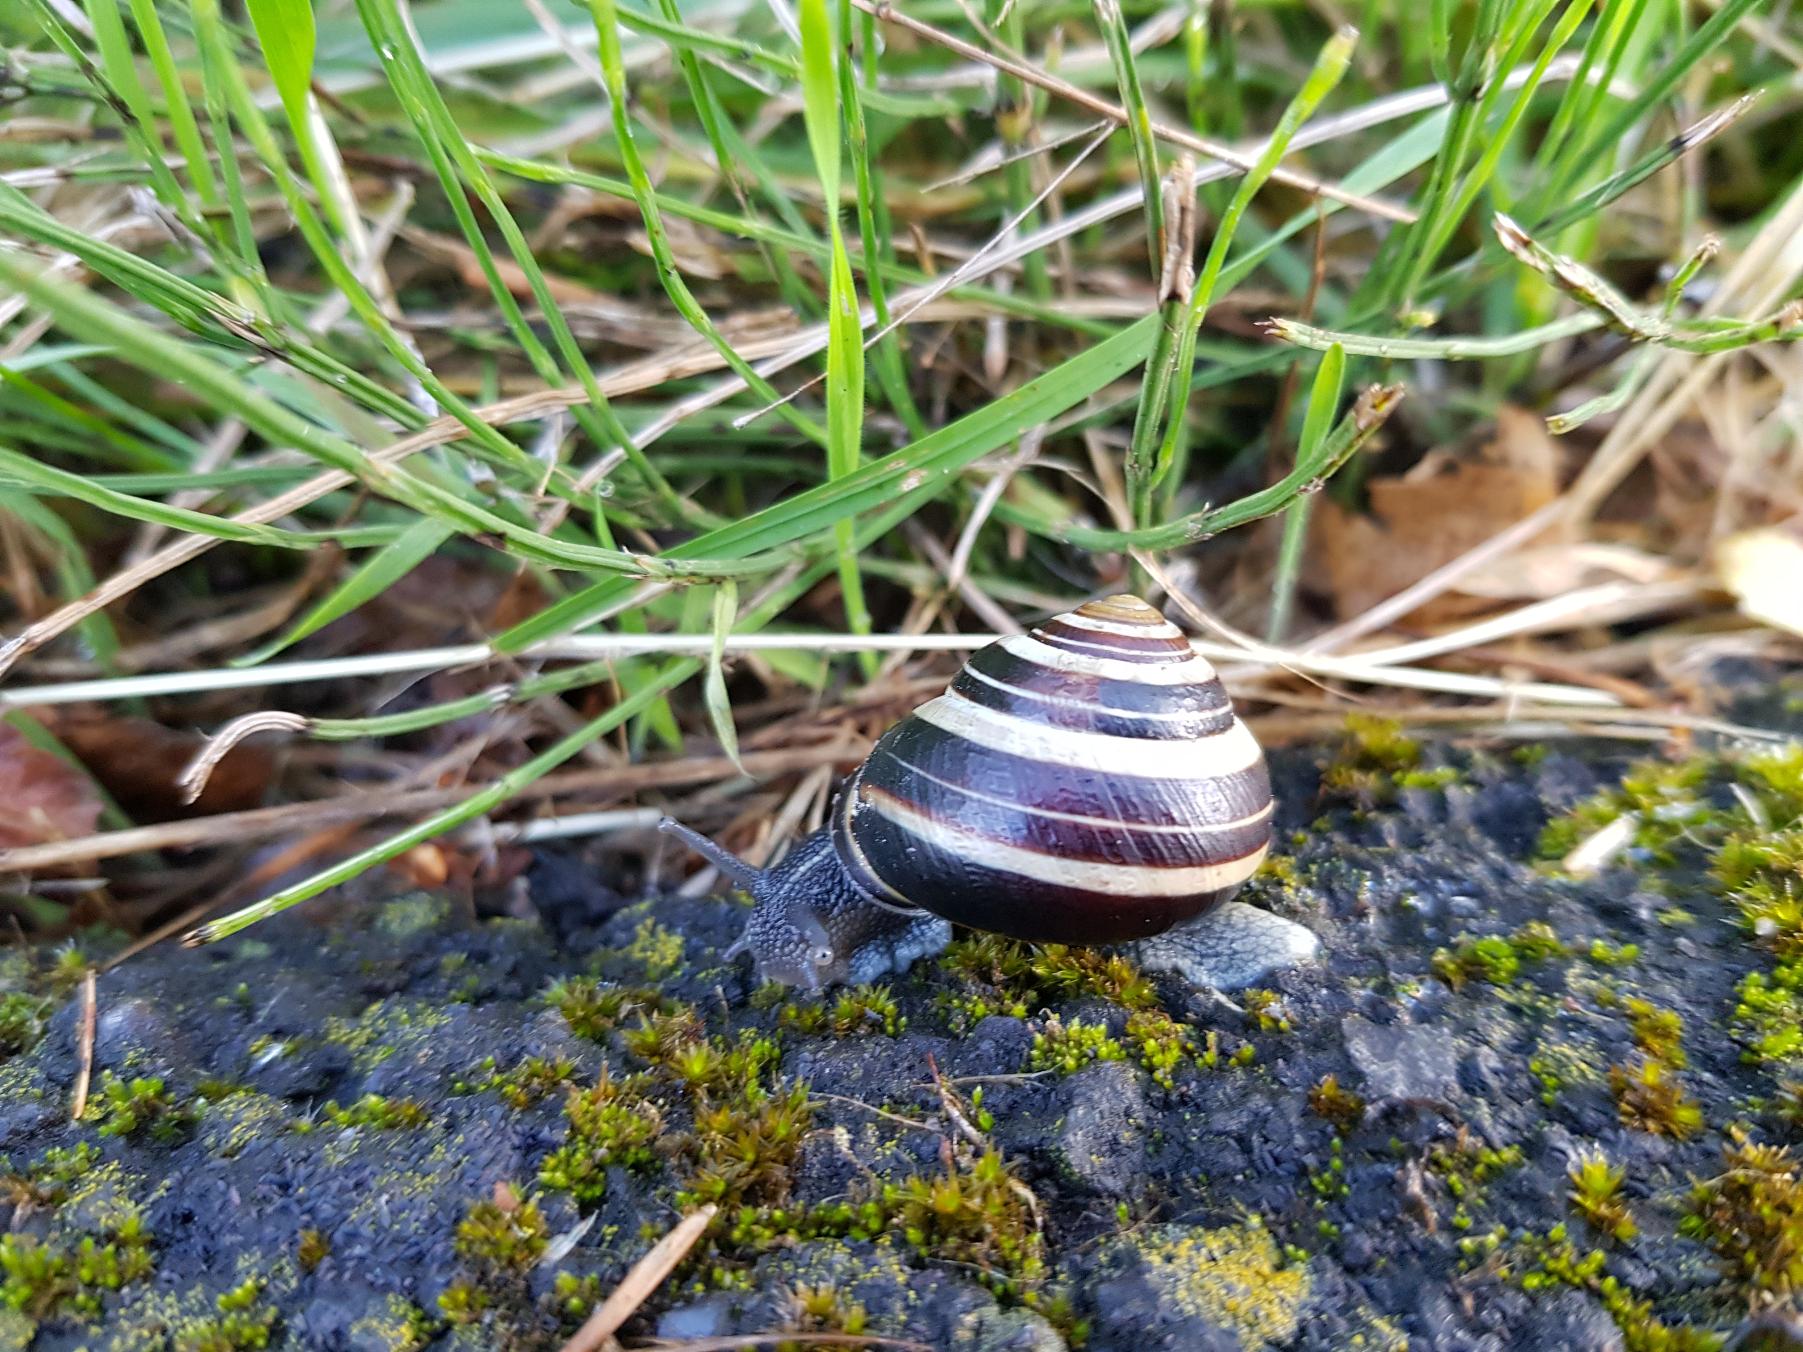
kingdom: Animalia
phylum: Mollusca
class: Gastropoda
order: Stylommatophora
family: Helicidae
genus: Cepaea
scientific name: Cepaea nemoralis
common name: Lundsnegl
